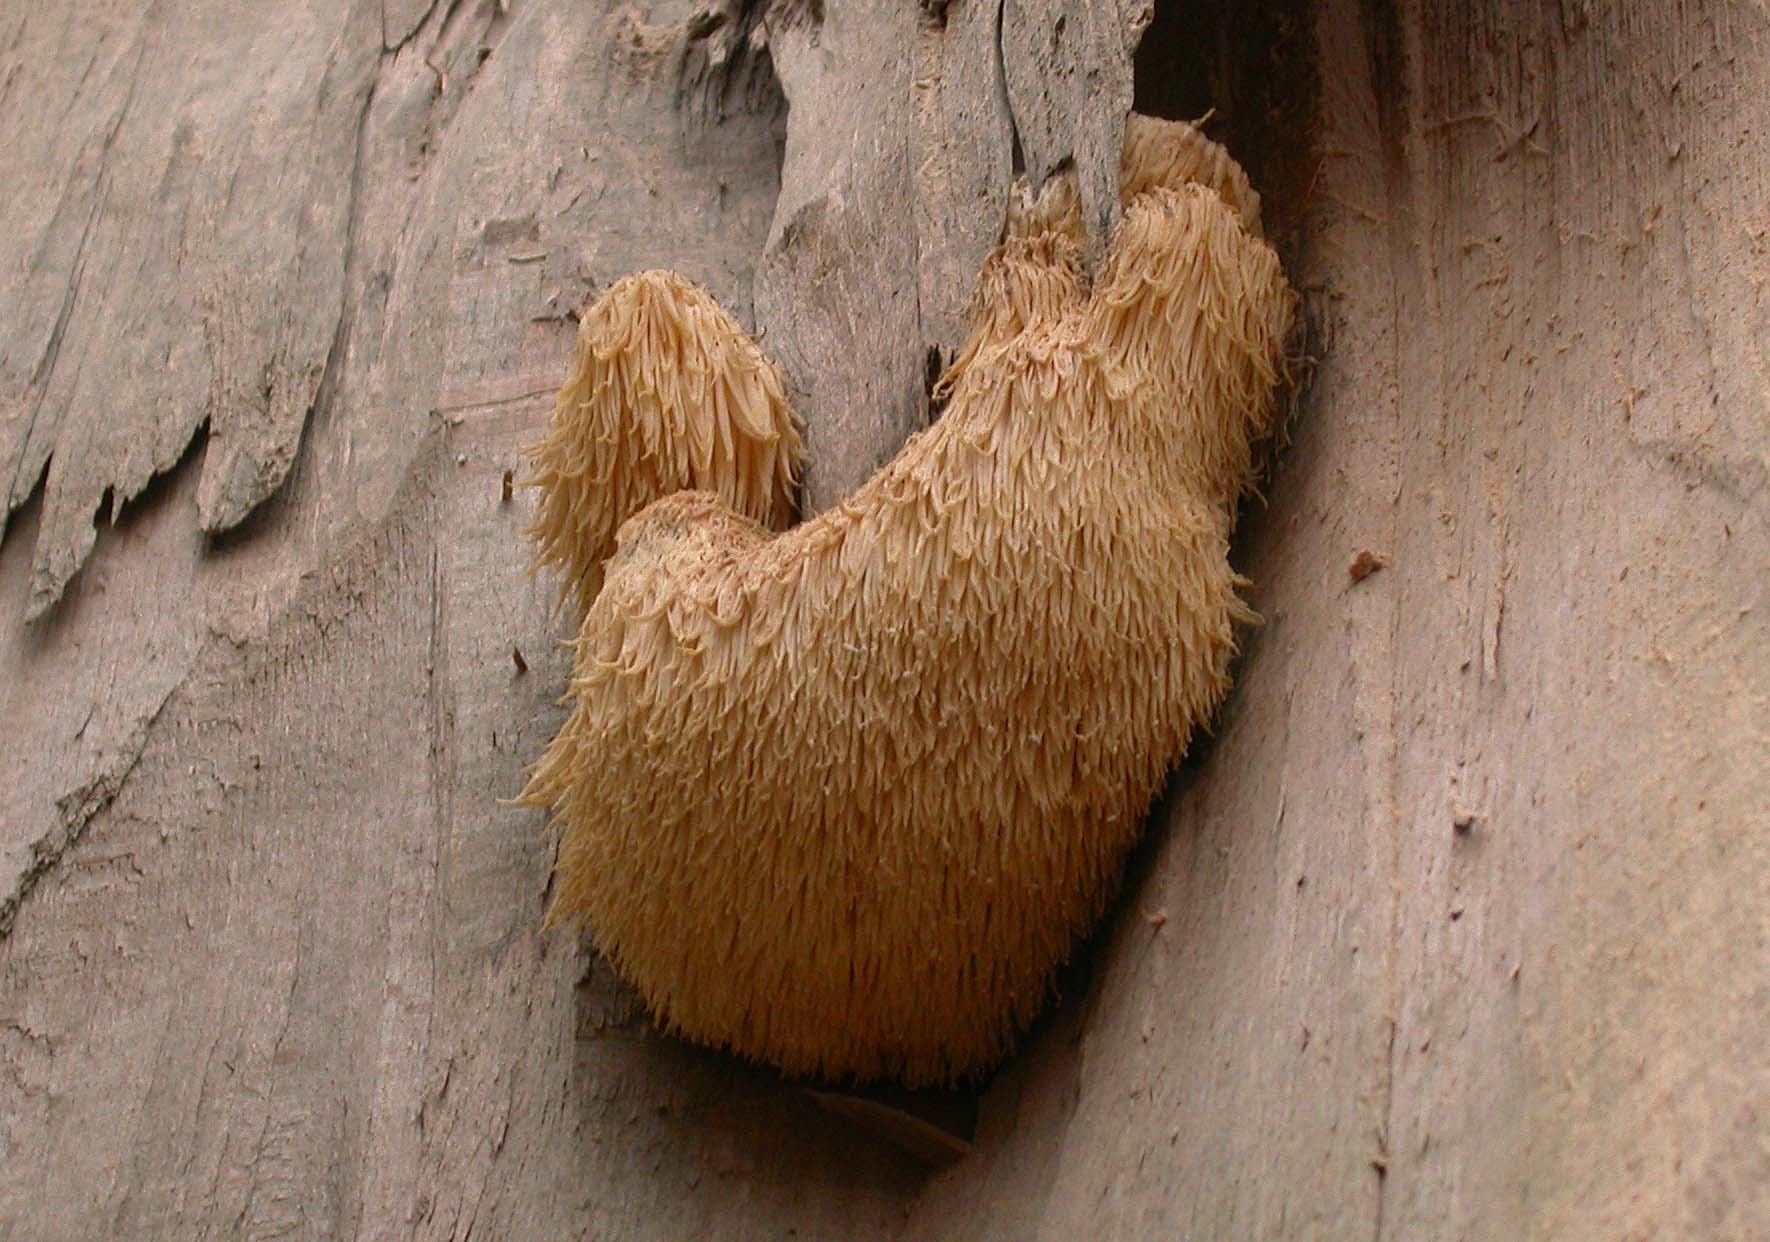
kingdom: Fungi
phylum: Basidiomycota
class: Agaricomycetes
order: Russulales
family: Hericiaceae
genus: Hericium
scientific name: Hericium erinaceus
